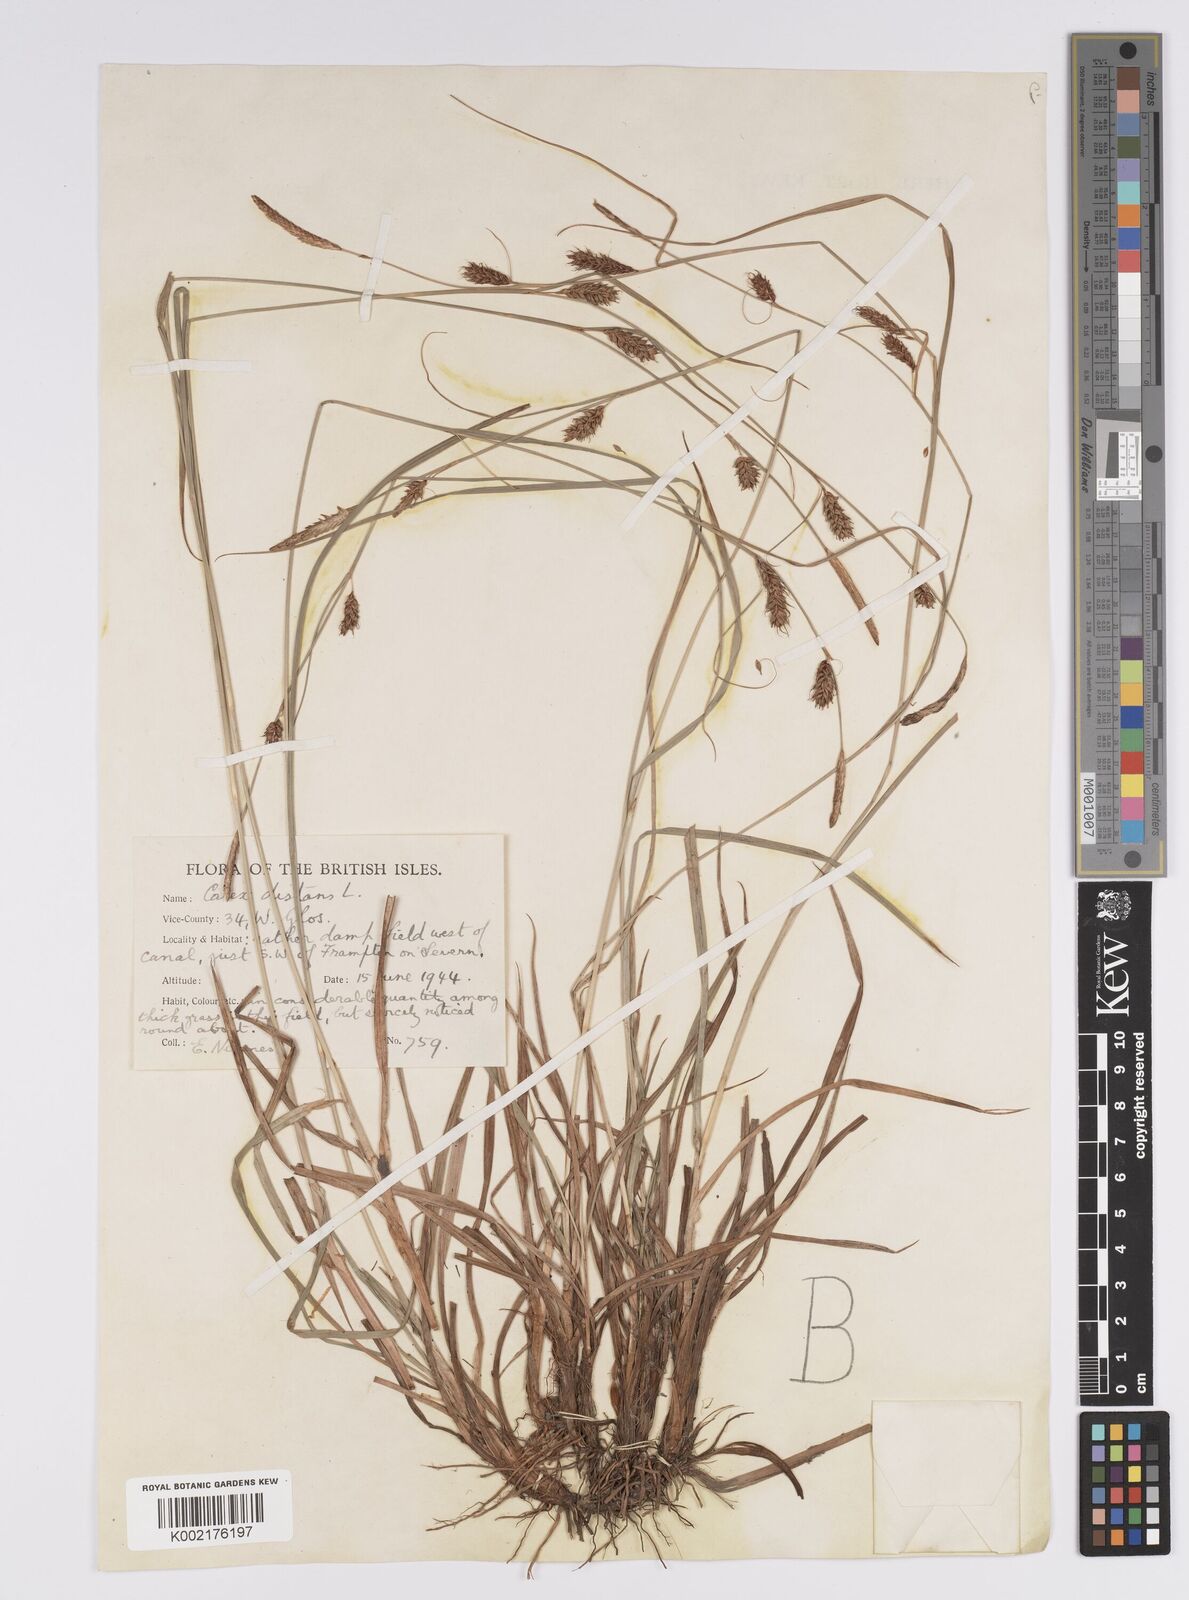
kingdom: Plantae
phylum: Tracheophyta
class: Liliopsida
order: Poales
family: Cyperaceae
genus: Carex
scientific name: Carex distans
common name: Distant sedge
